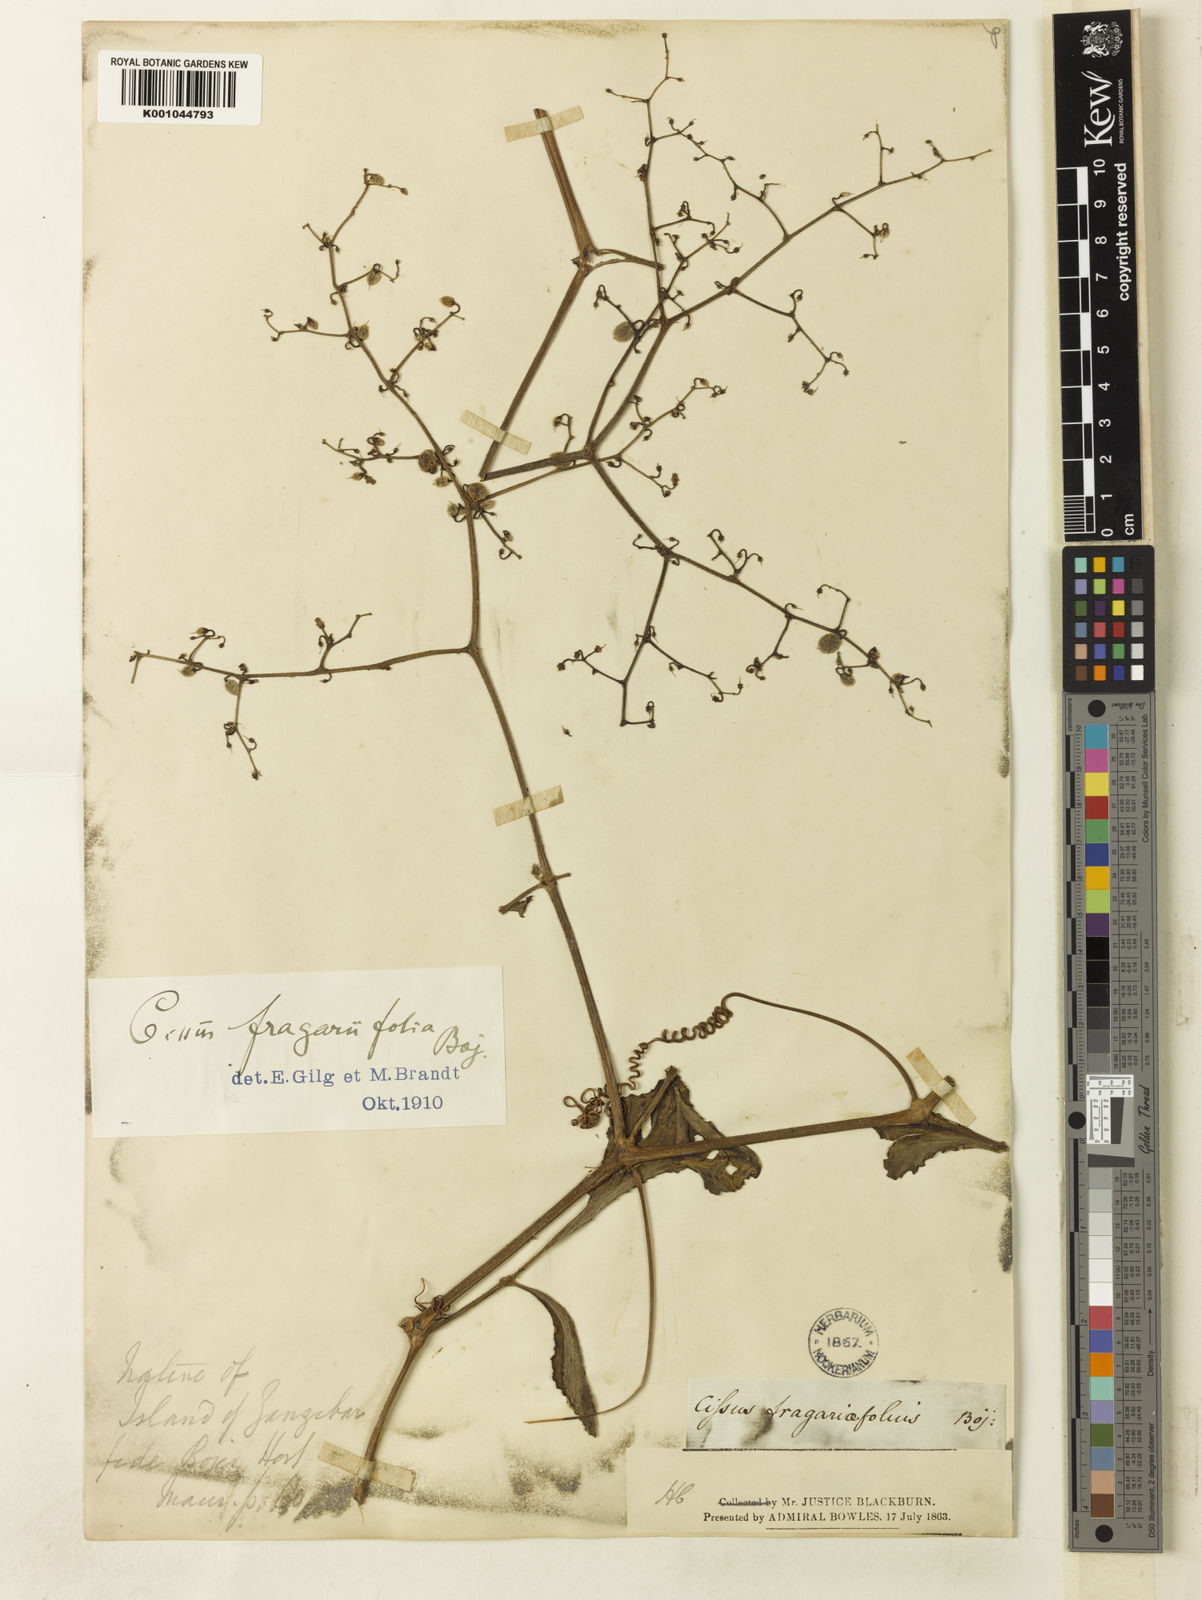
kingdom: Plantae
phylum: Tracheophyta
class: Magnoliopsida
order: Vitales
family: Vitaceae
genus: Cyphostemma
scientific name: Cyphostemma fragariifolium
